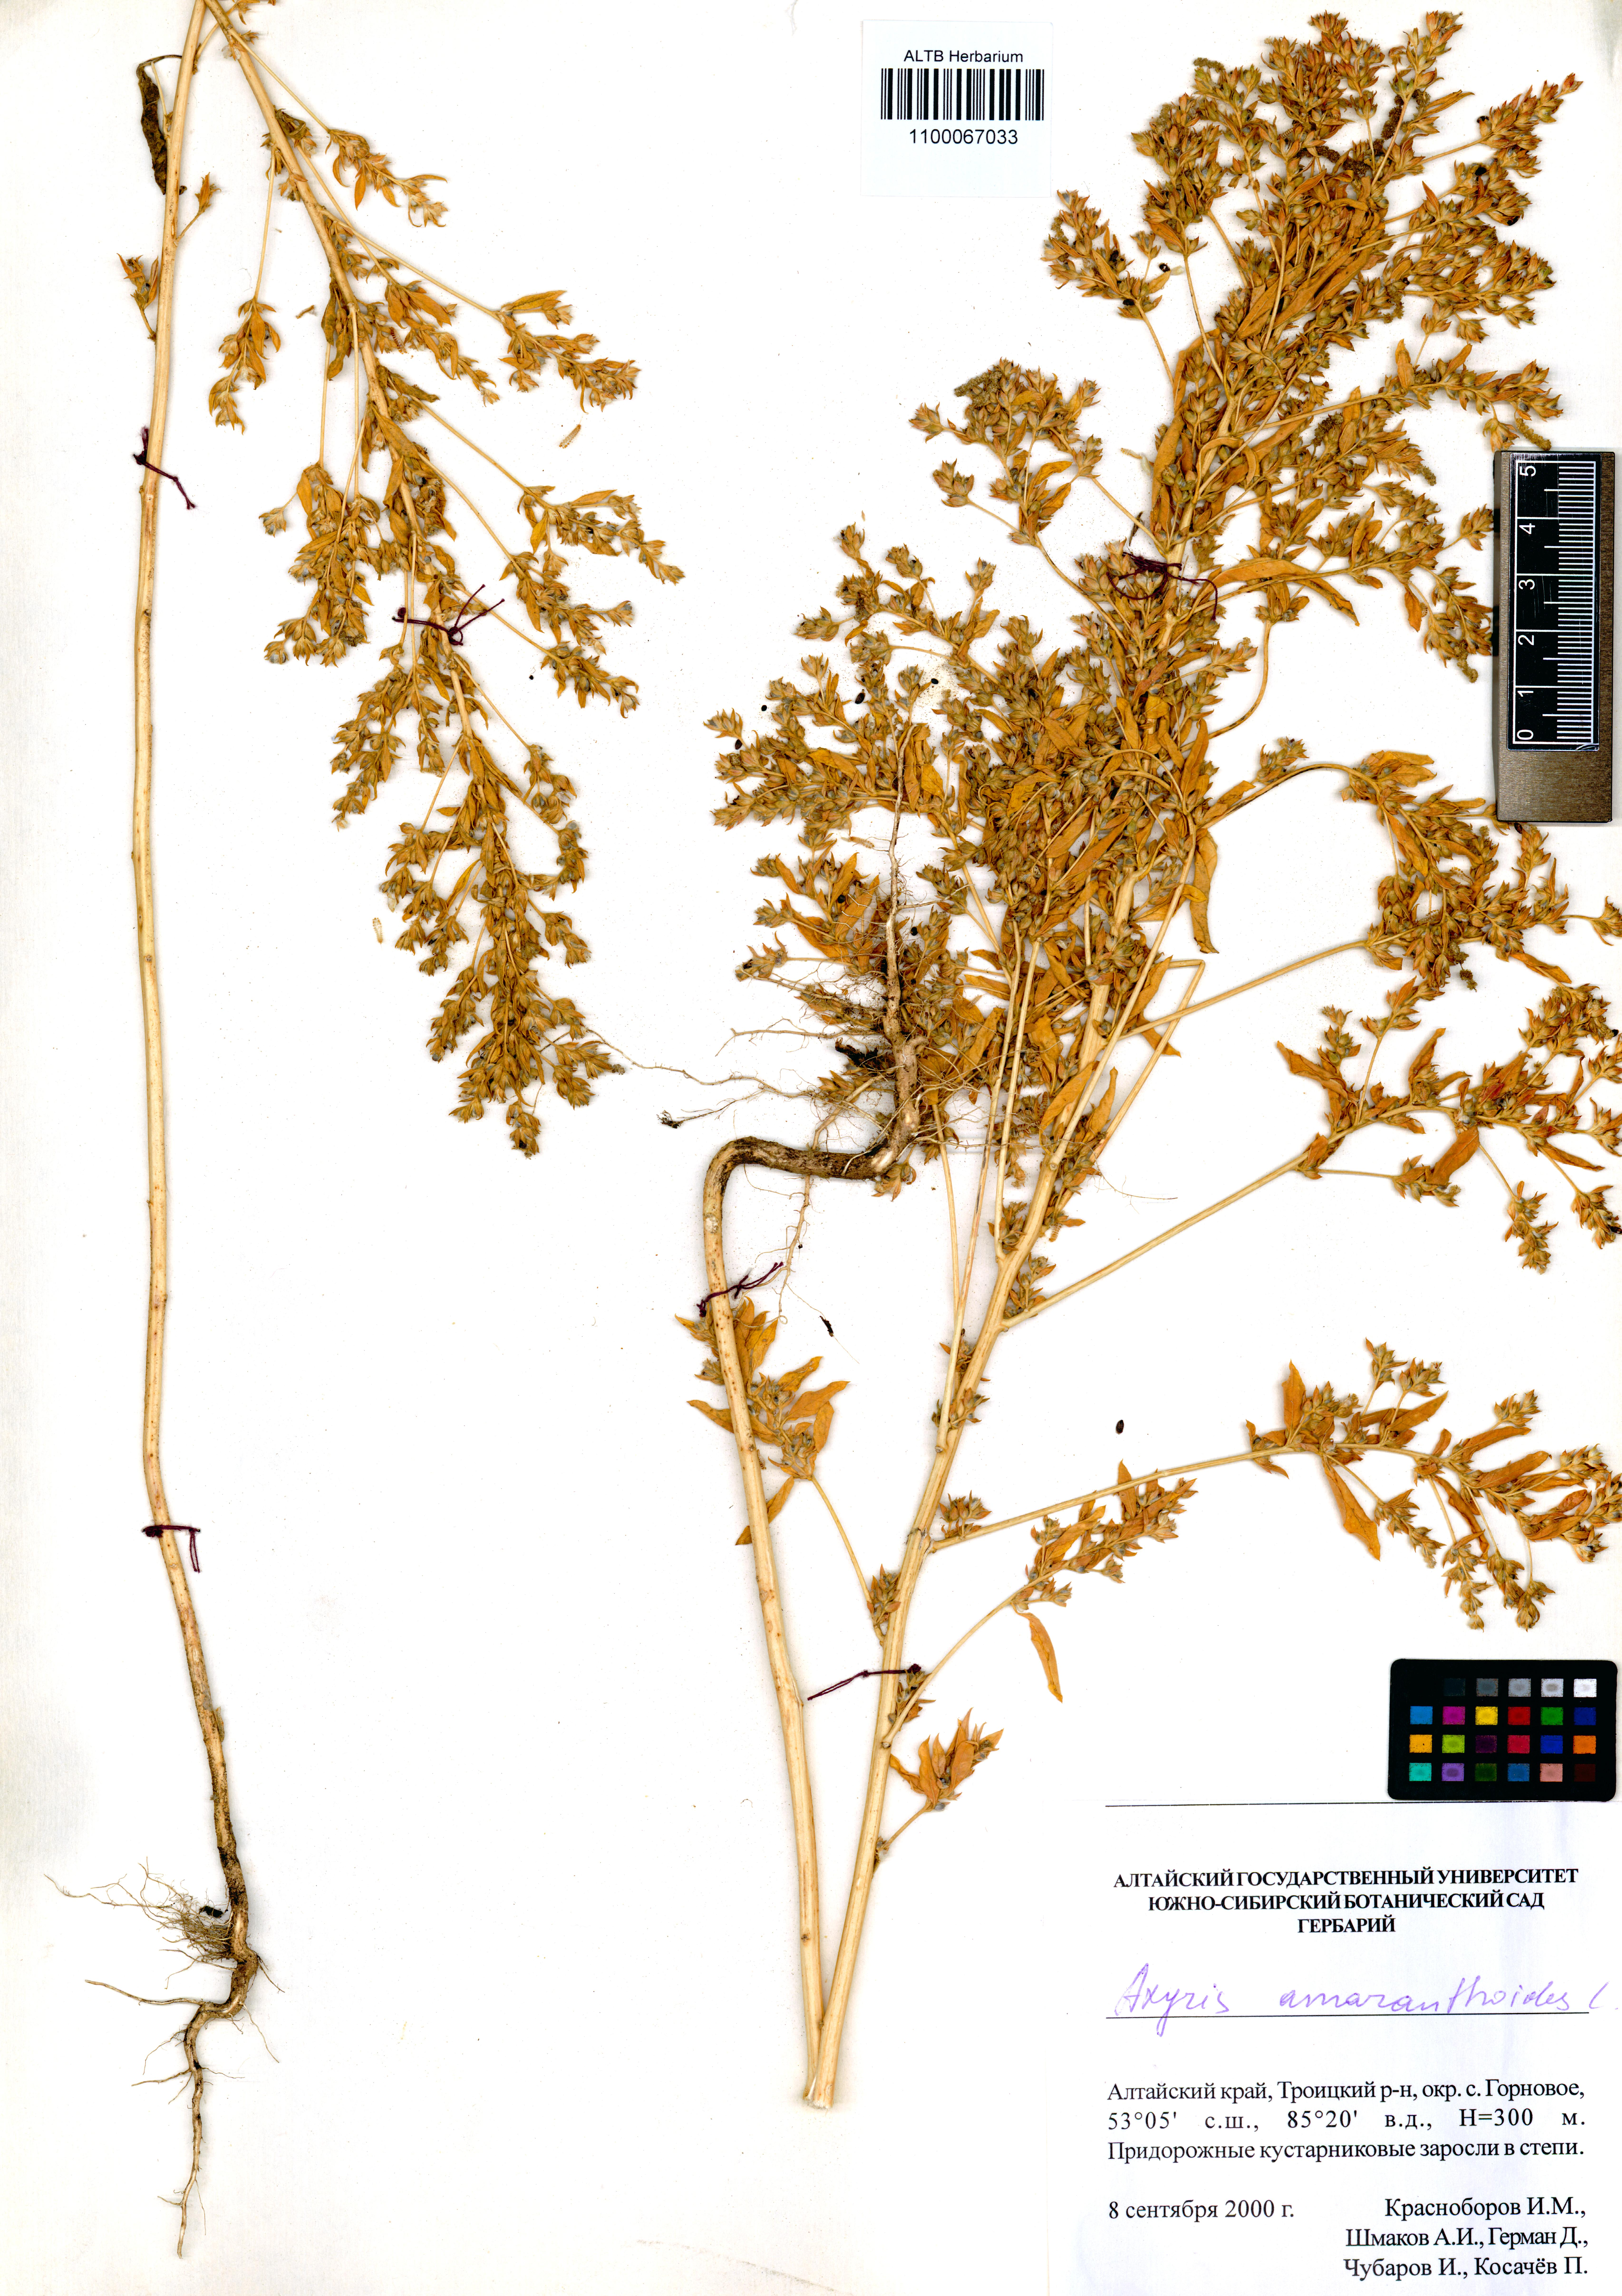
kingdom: Plantae
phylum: Tracheophyta
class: Magnoliopsida
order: Caryophyllales
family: Amaranthaceae
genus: Axyris
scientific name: Axyris amaranthoides
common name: Russian pigweed
